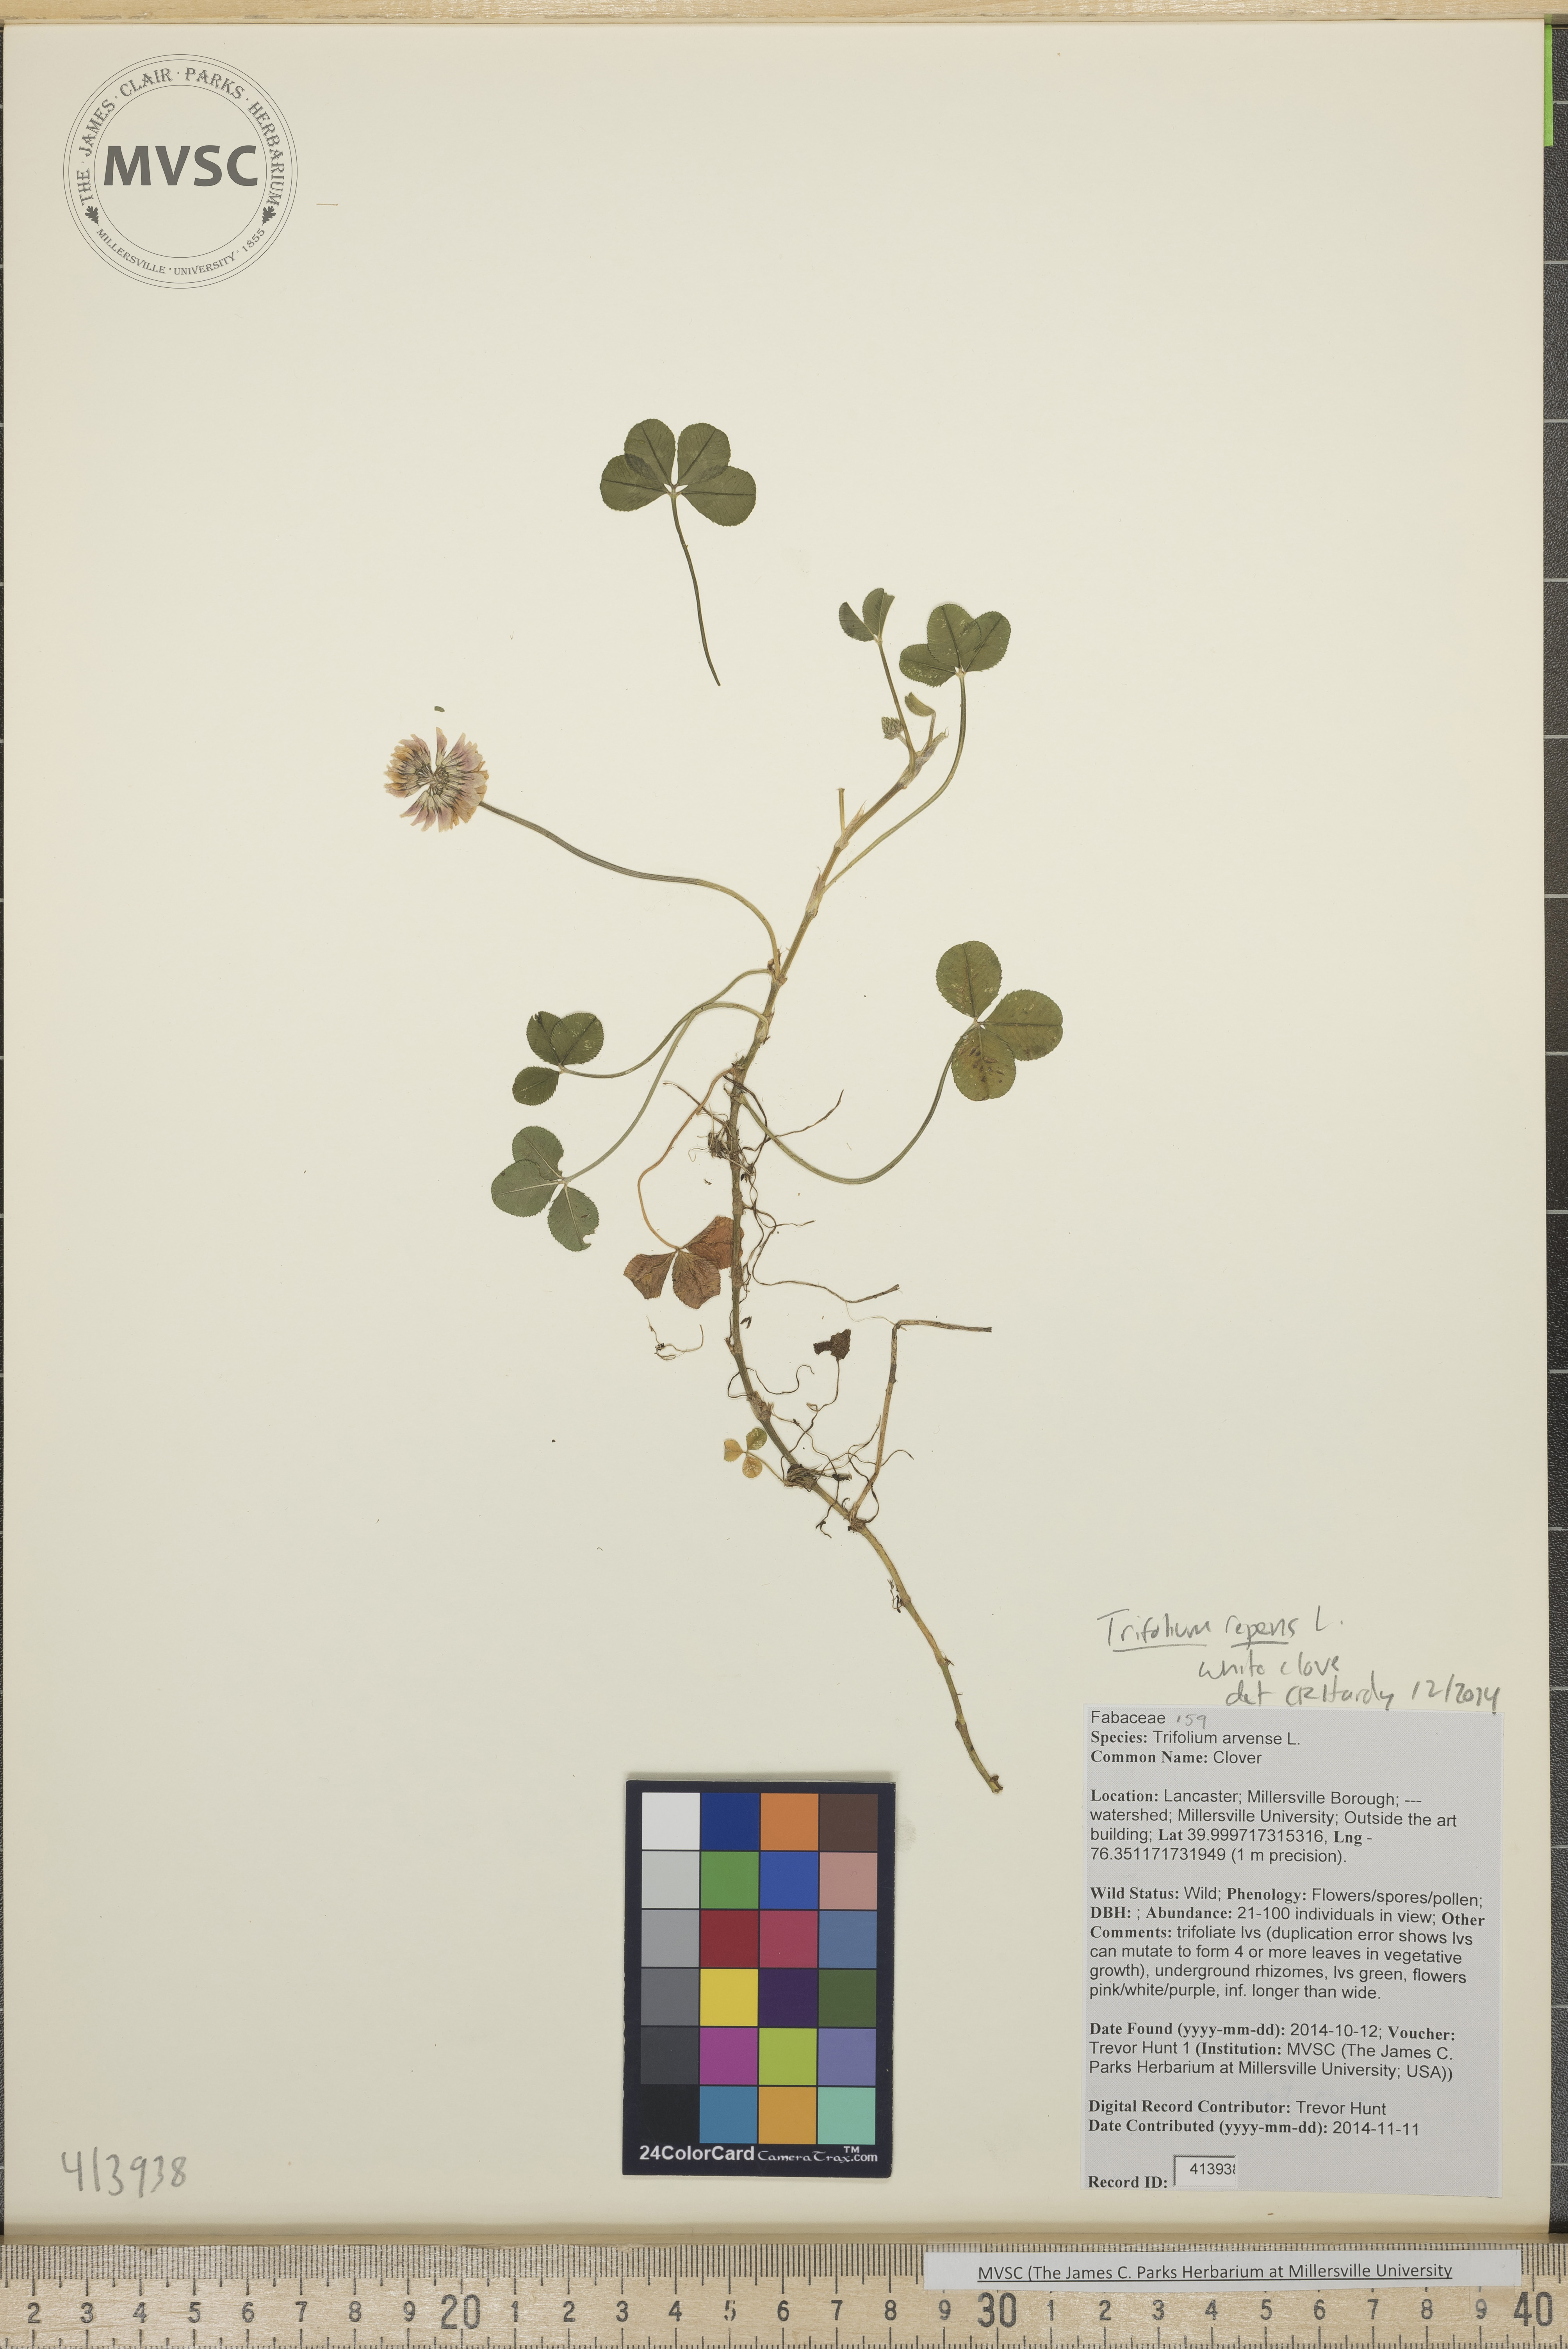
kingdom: Plantae
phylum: Tracheophyta
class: Magnoliopsida
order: Fabales
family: Fabaceae
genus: Trifolium
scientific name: Trifolium repens
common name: White clover
